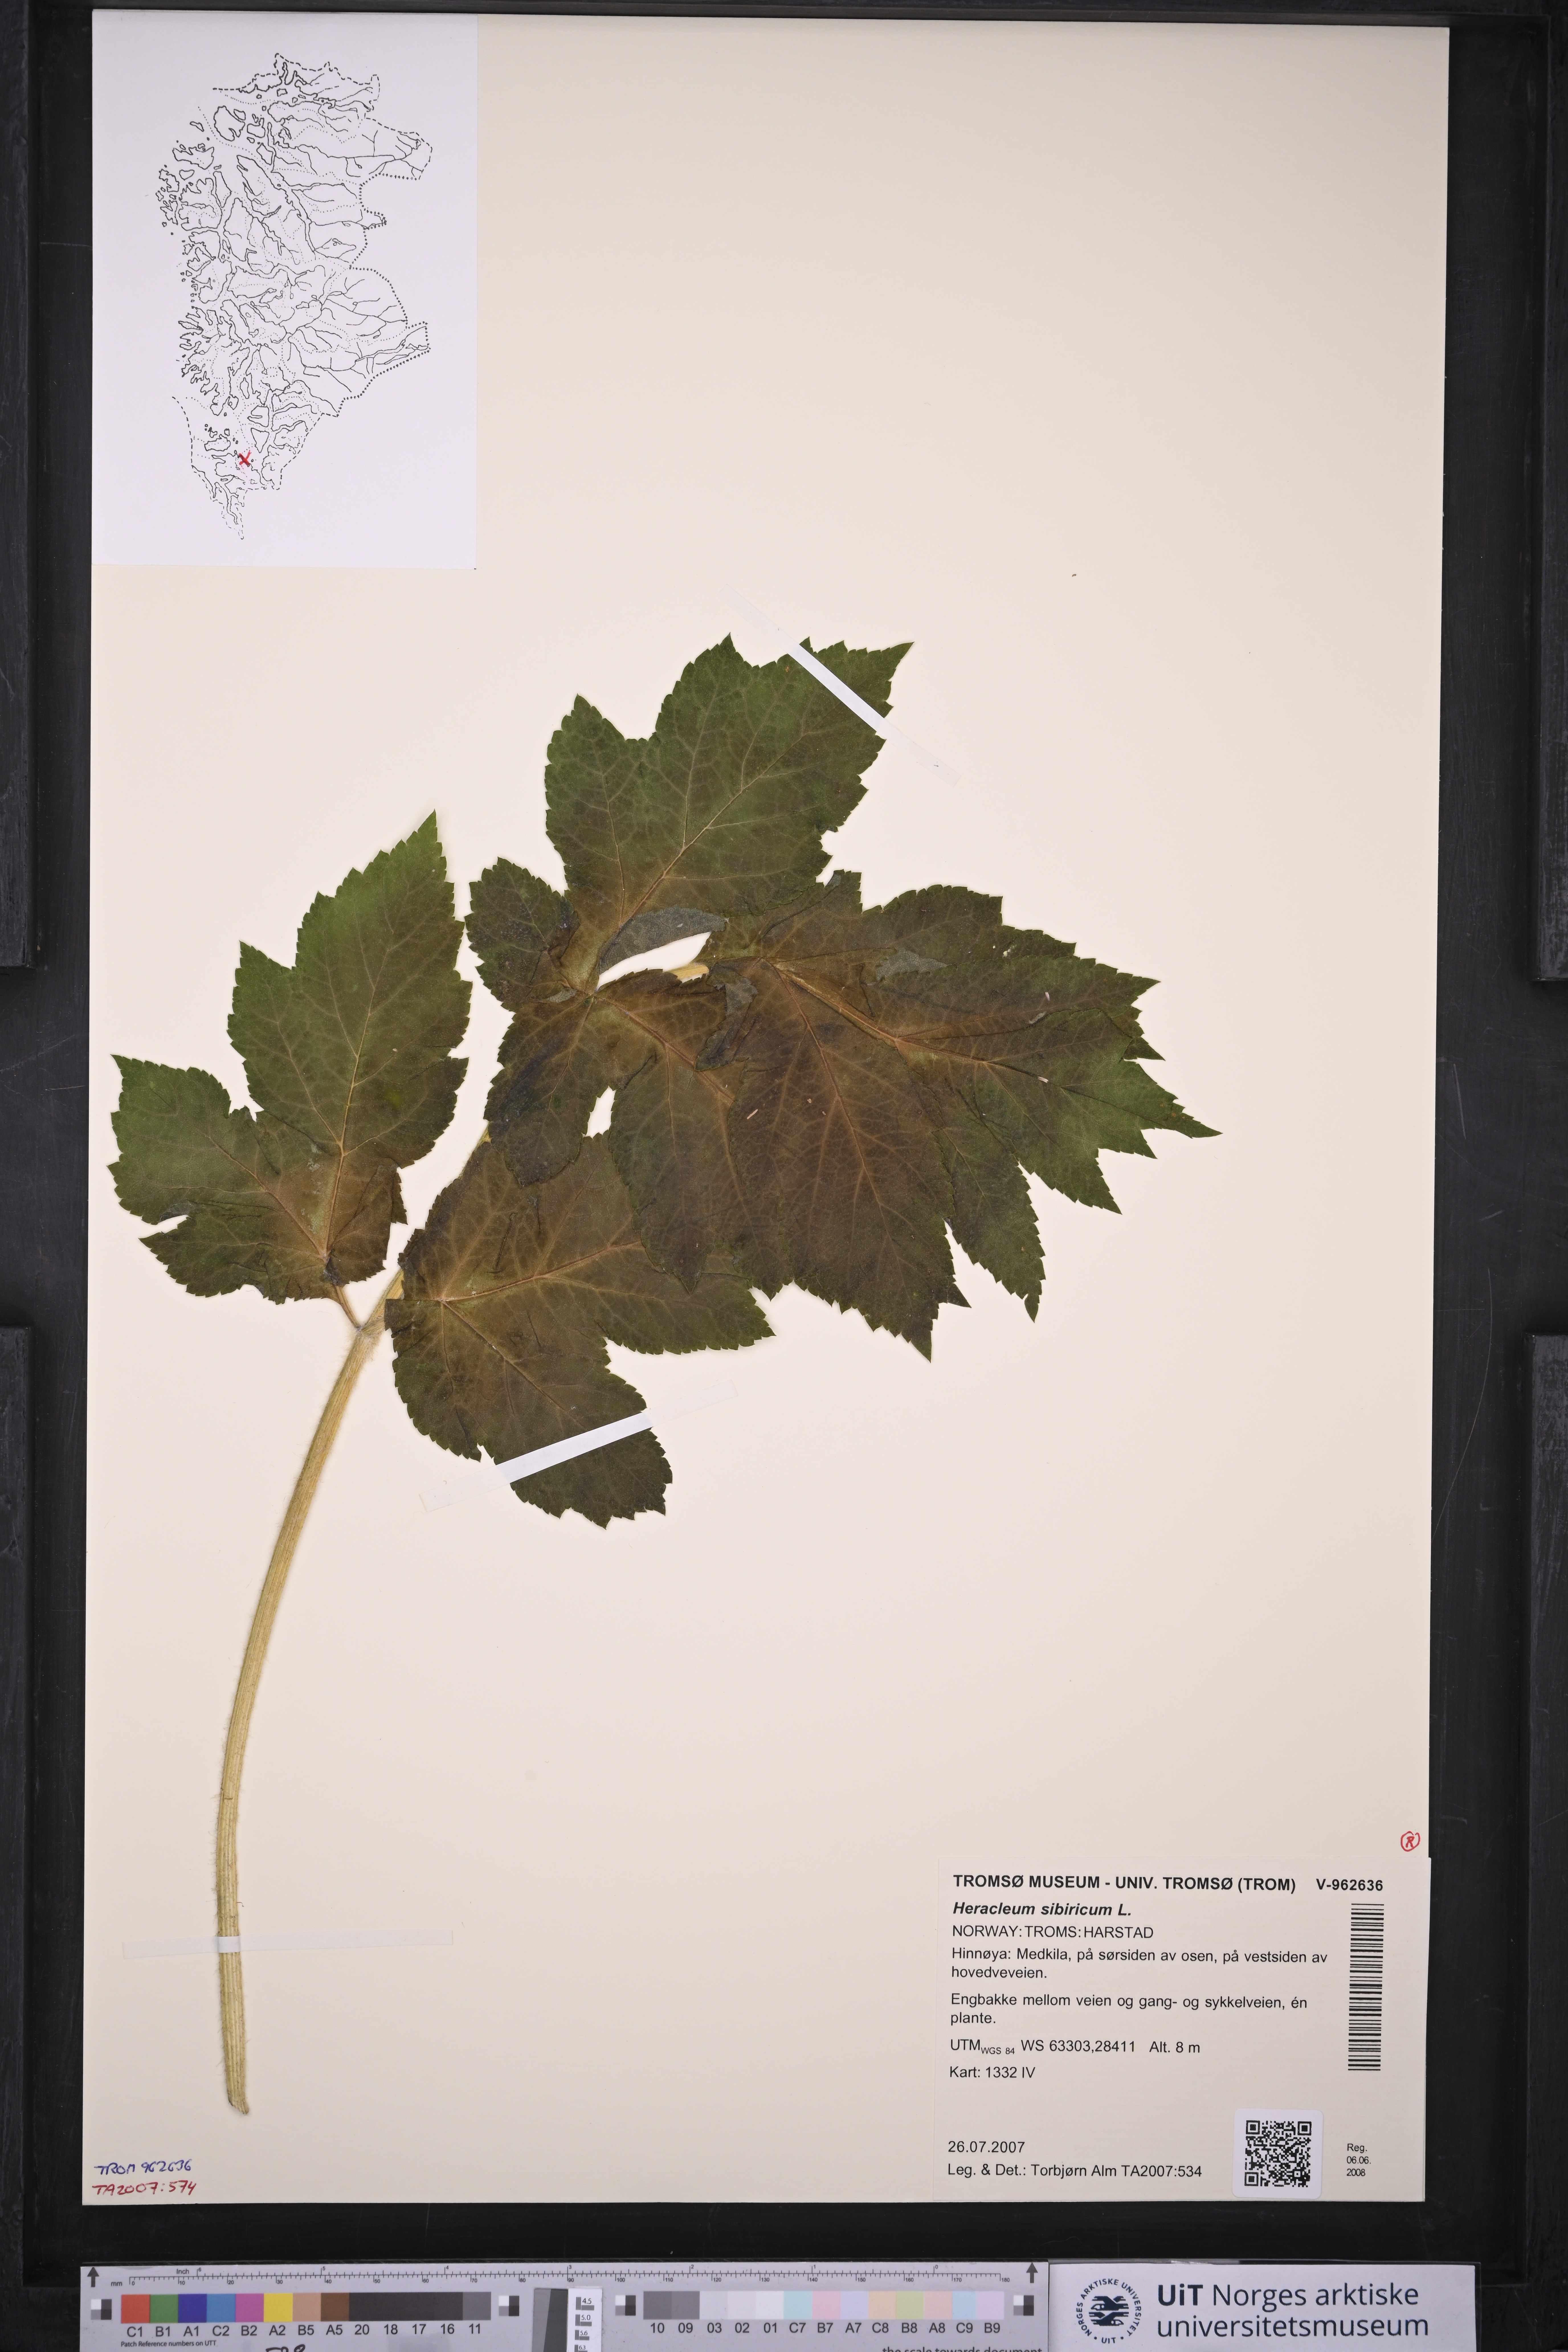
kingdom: Plantae
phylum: Tracheophyta
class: Magnoliopsida
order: Apiales
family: Apiaceae
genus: Heracleum
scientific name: Heracleum sphondylium
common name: Hogweed
